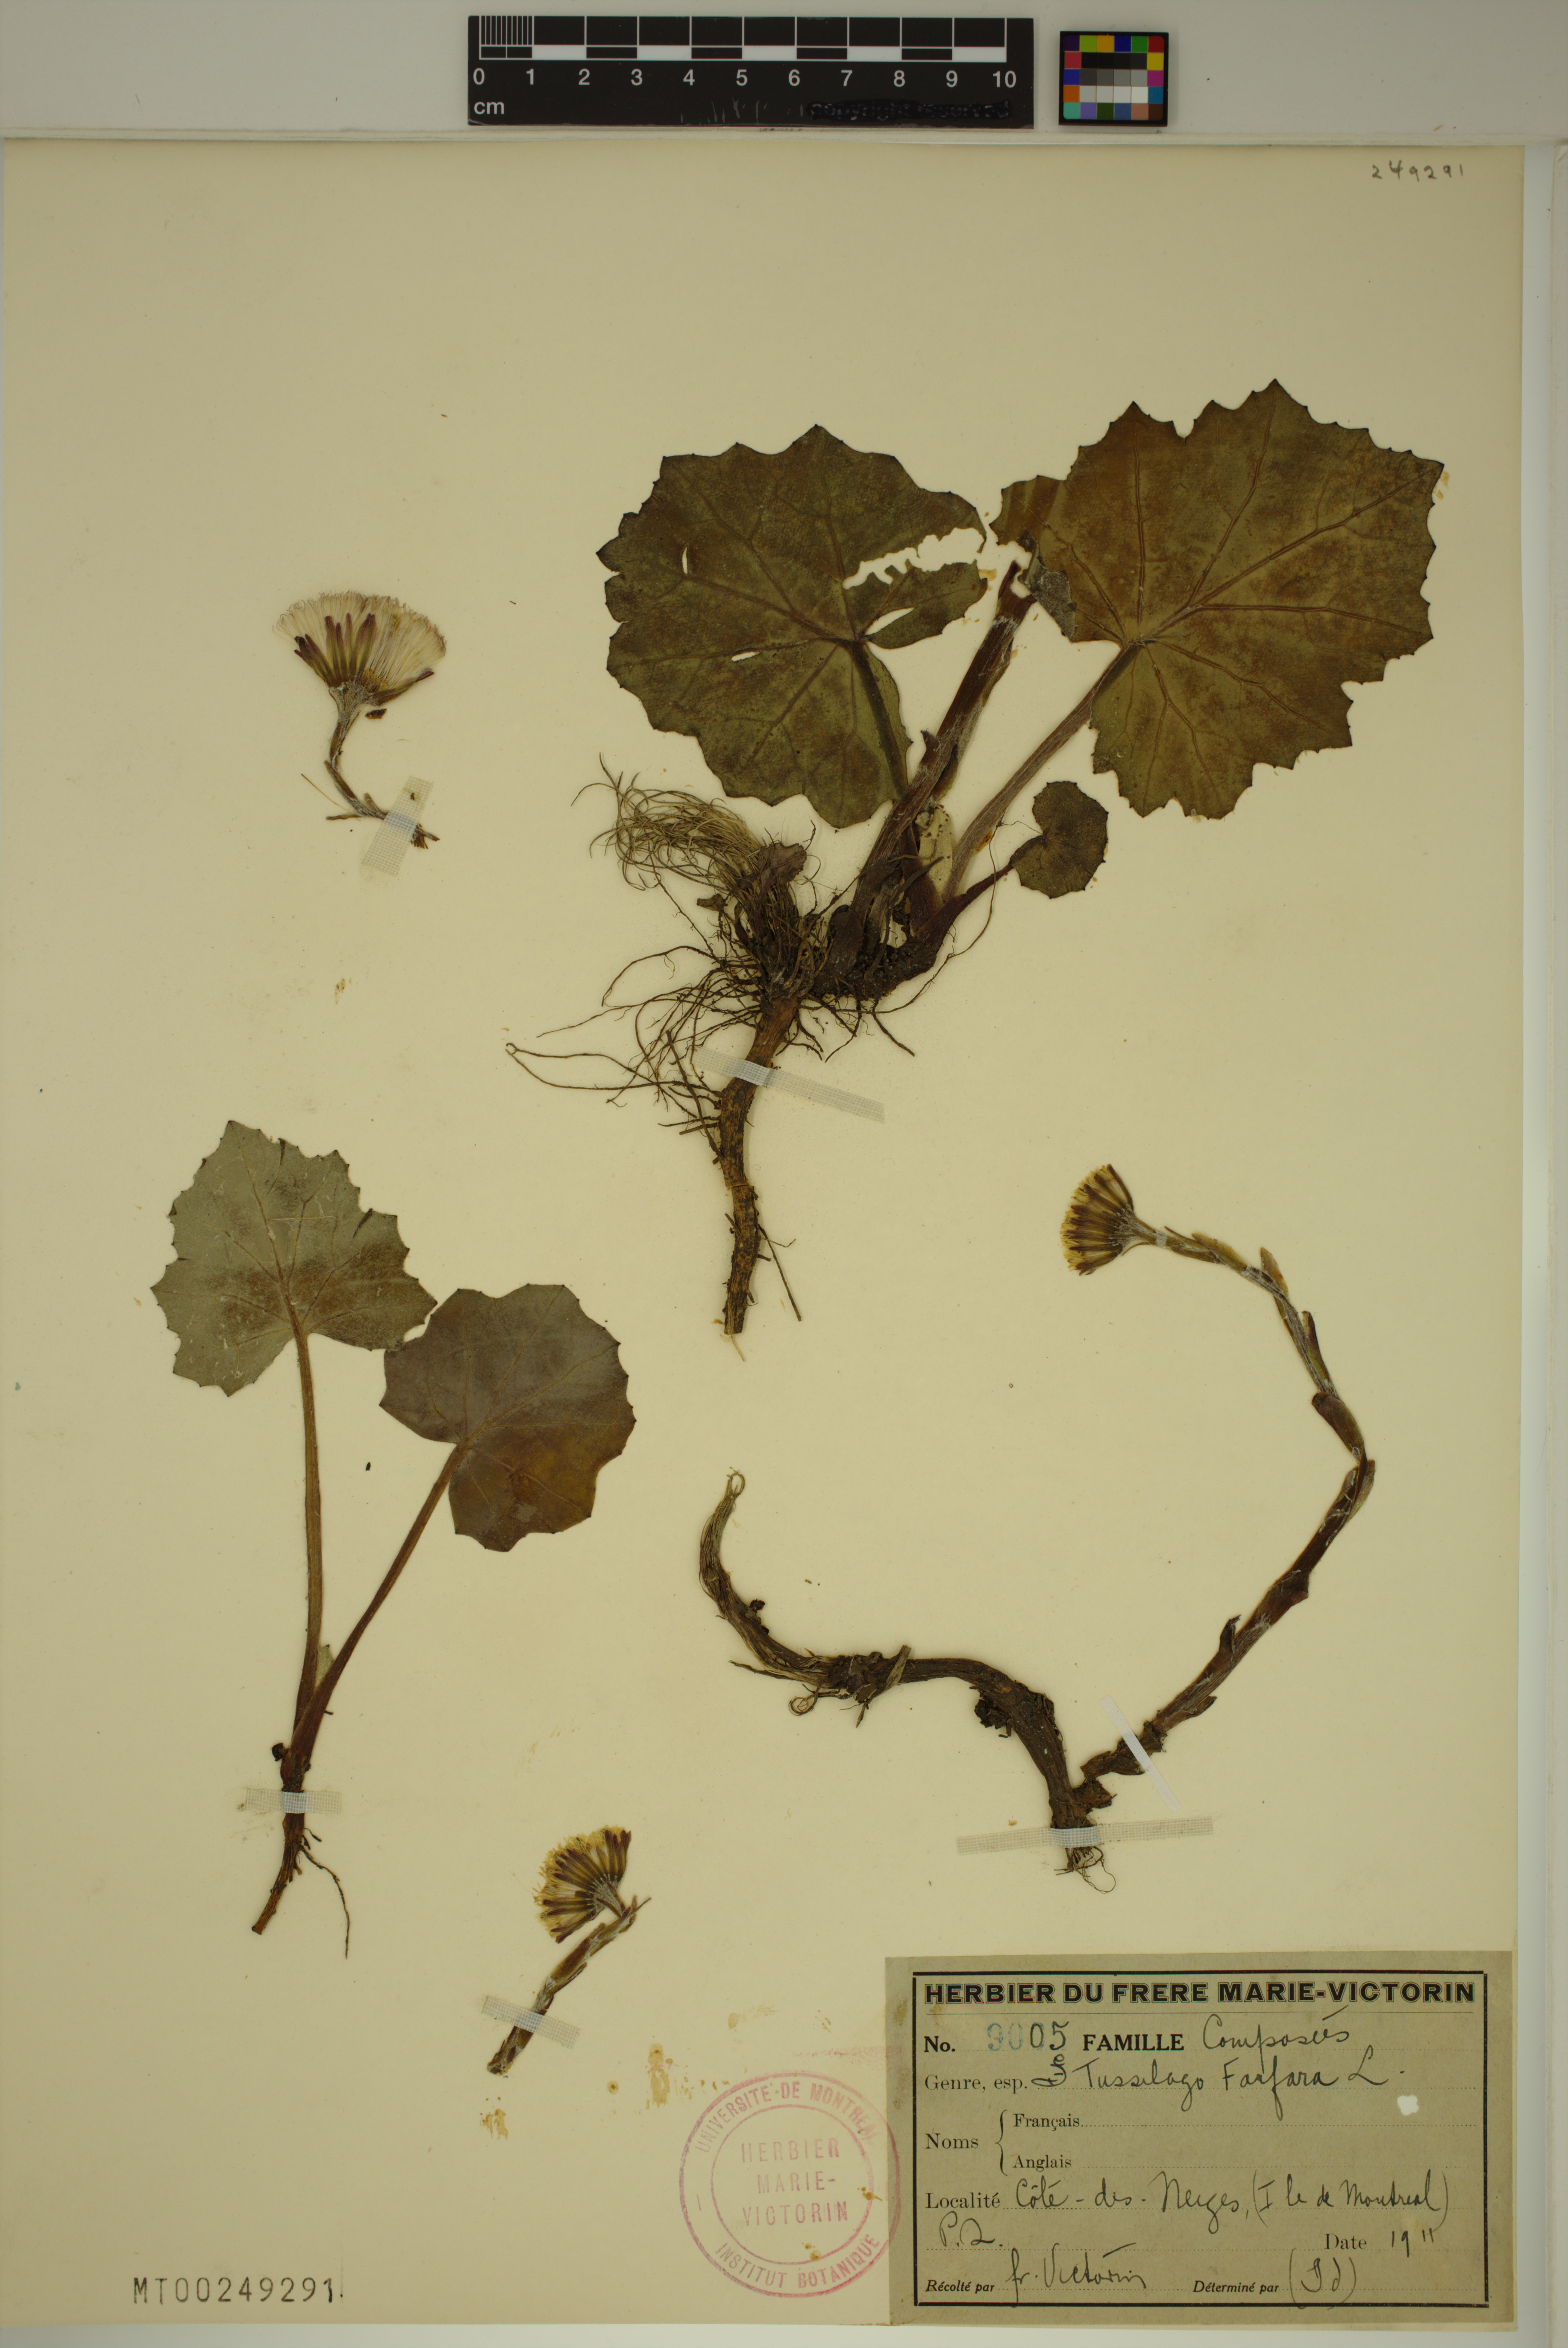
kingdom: Plantae
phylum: Tracheophyta
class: Magnoliopsida
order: Asterales
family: Asteraceae
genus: Tussilago
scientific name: Tussilago farfara
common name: Coltsfoot
